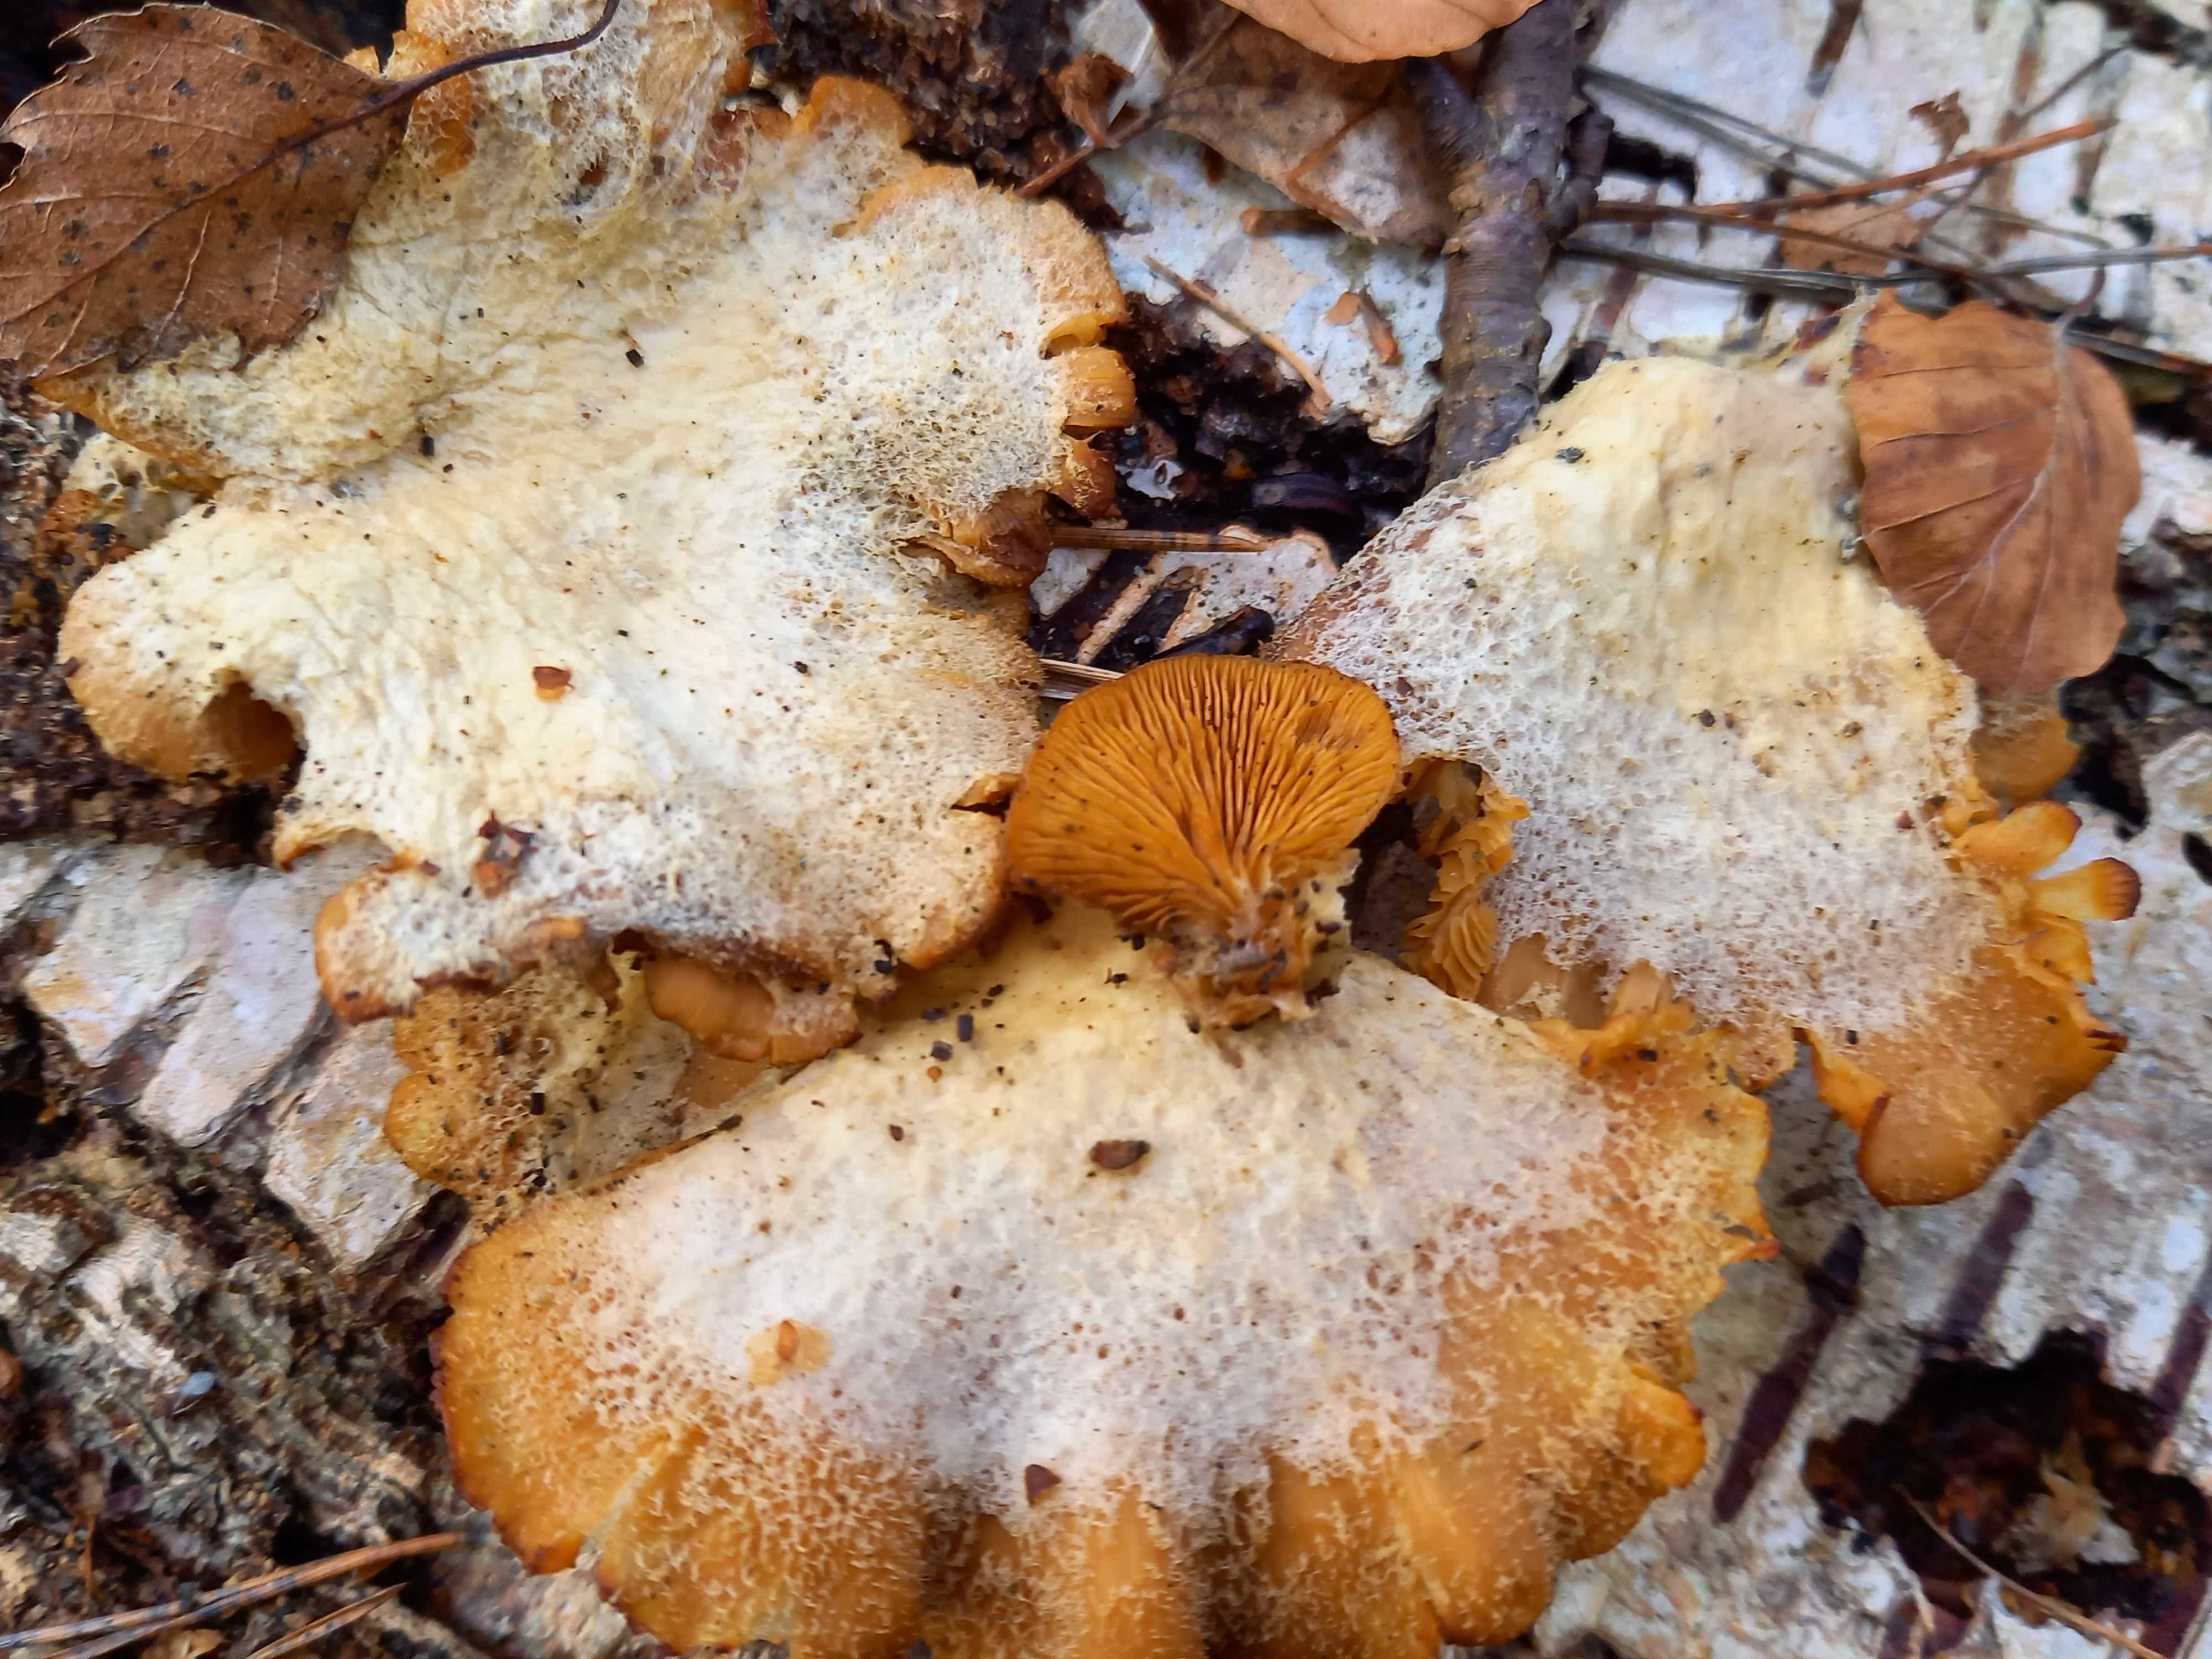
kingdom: Fungi
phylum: Basidiomycota
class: Agaricomycetes
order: Agaricales
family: Phyllotopsidaceae
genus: Phyllotopsis
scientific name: Phyllotopsis nidulans
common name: okkerblad
